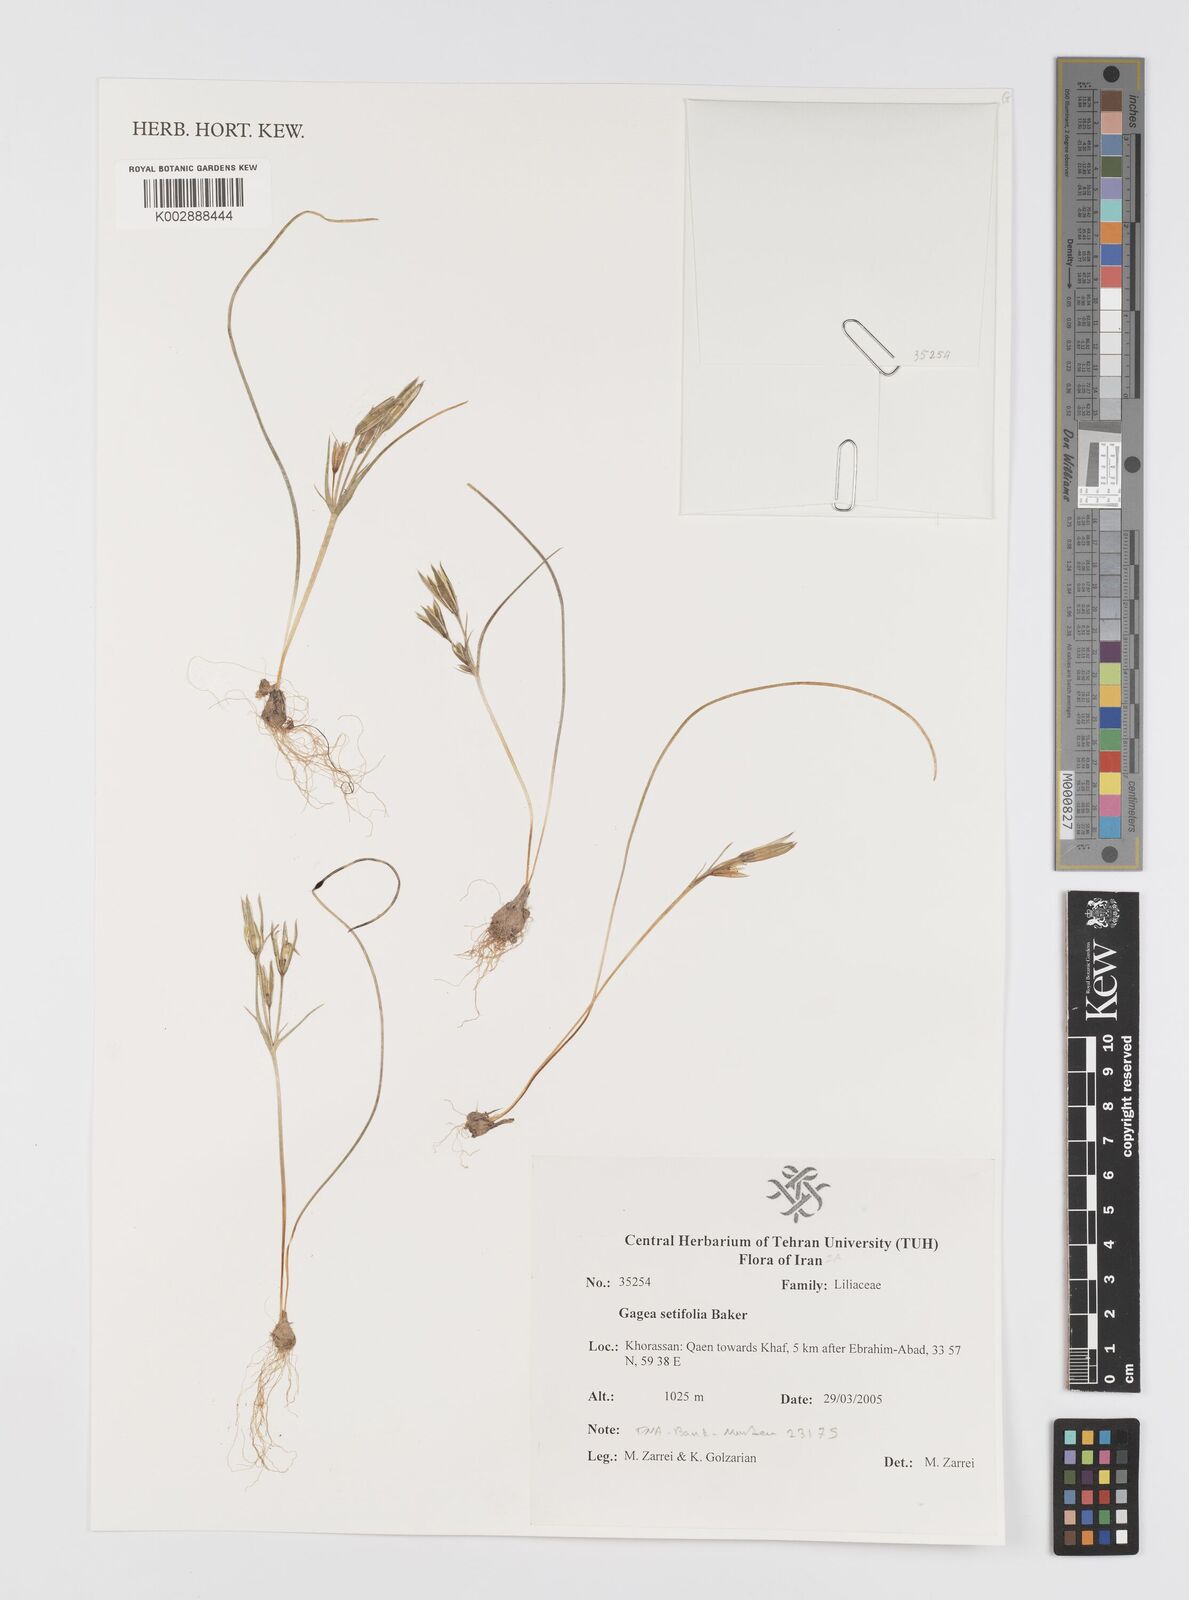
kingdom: Plantae
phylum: Tracheophyta
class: Liliopsida
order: Liliales
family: Liliaceae
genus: Gagea
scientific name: Gagea setifolia
